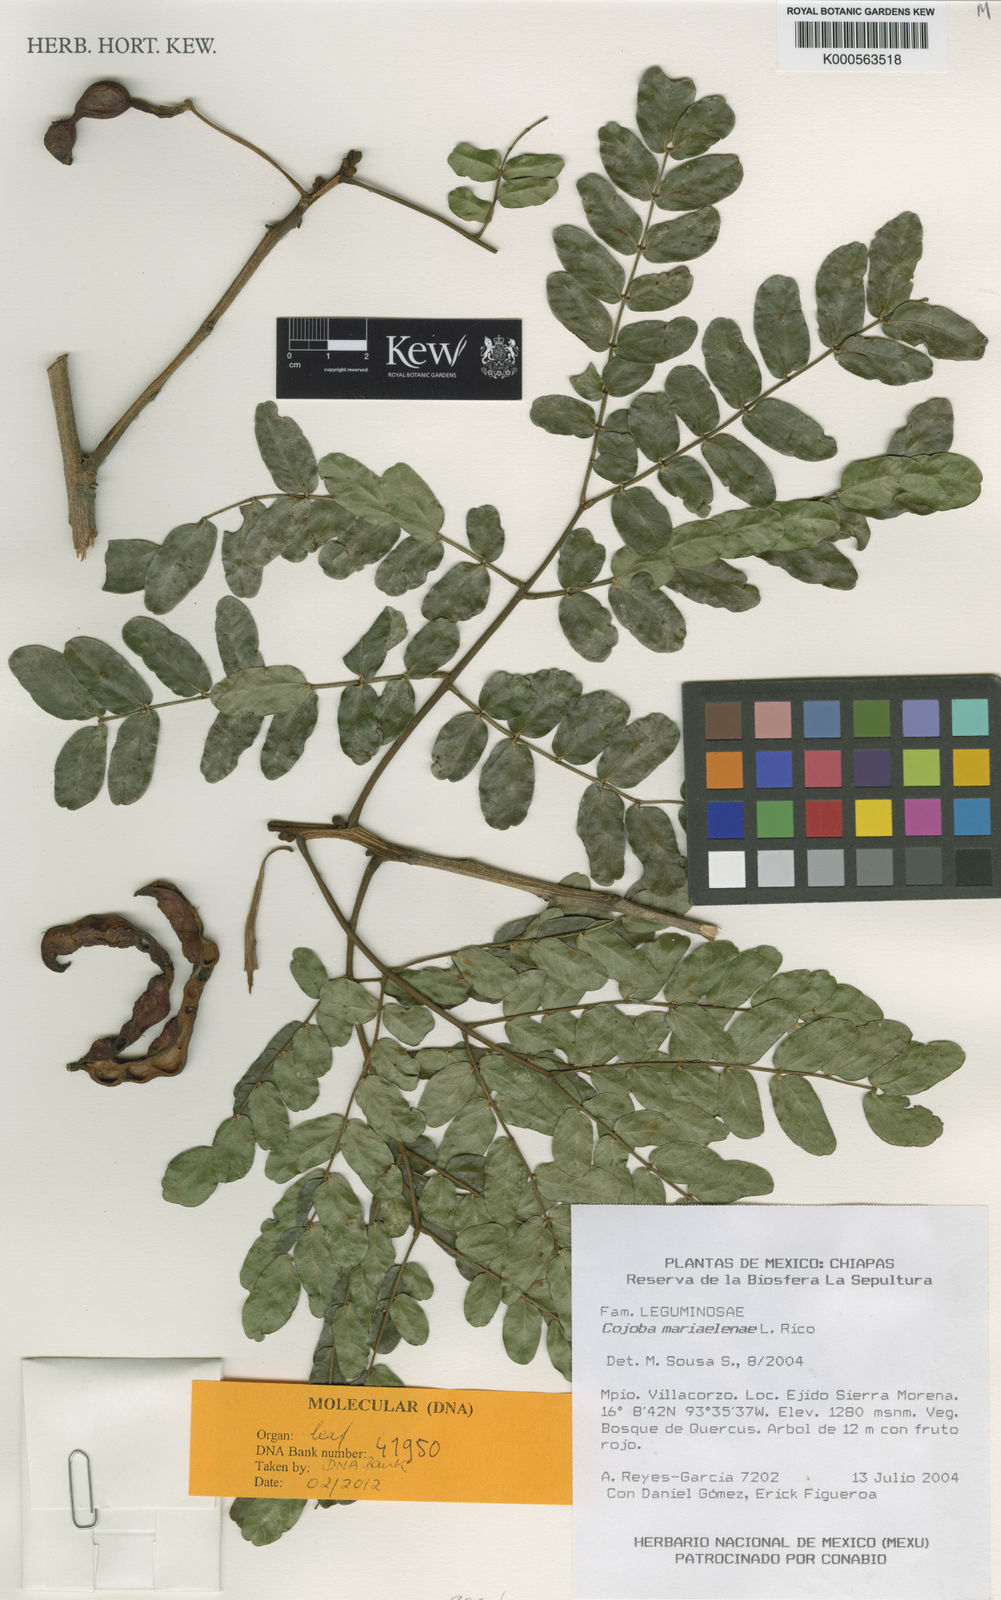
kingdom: Plantae
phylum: Tracheophyta
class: Magnoliopsida
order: Fabales
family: Fabaceae
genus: Cojoba
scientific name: Cojoba escuintlensis
